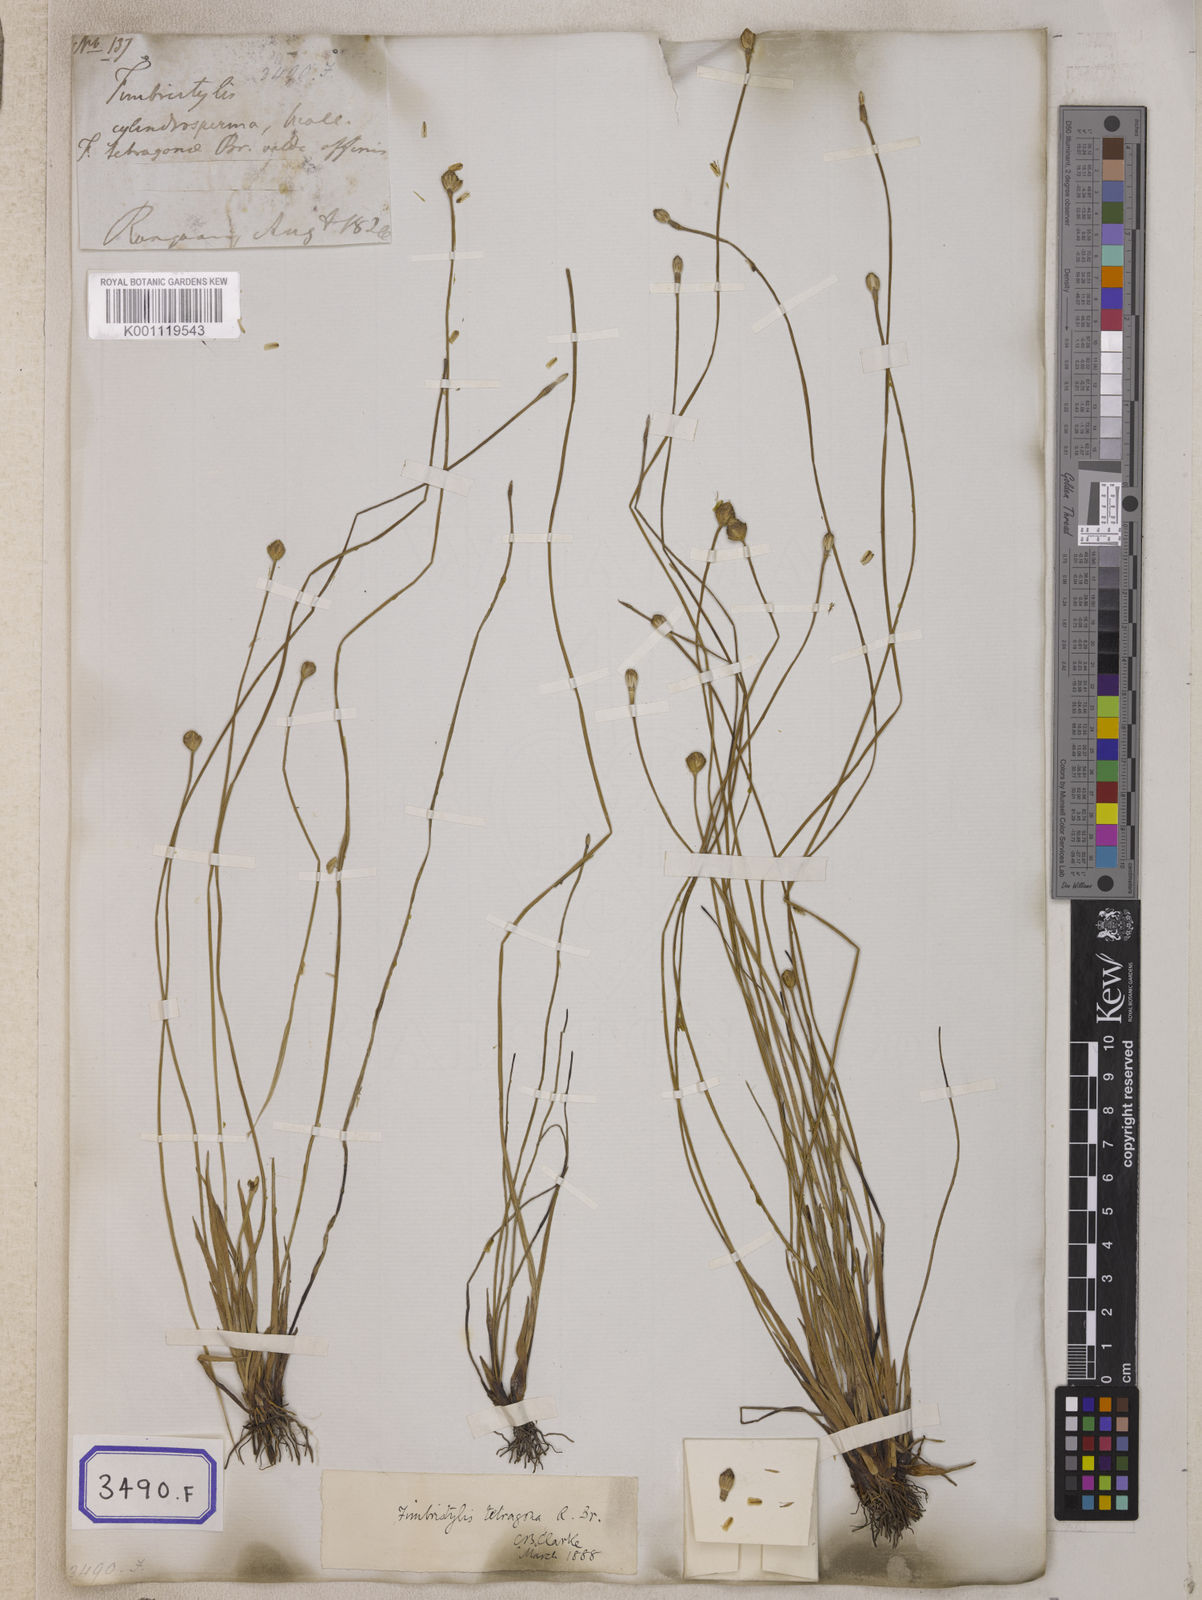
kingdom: Plantae
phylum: Tracheophyta
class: Liliopsida
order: Poales
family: Cyperaceae
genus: Isolepis
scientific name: Isolepis
